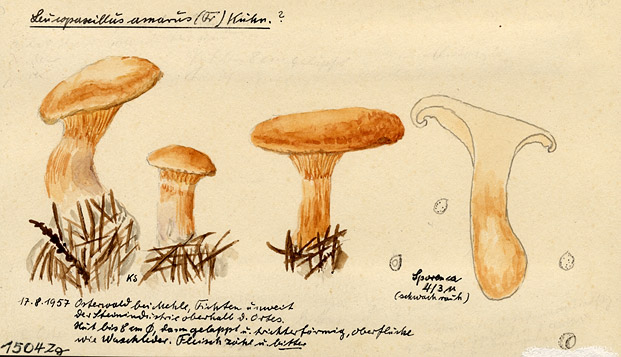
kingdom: Fungi
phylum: Basidiomycota
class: Agaricomycetes
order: Agaricales
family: Tricholomataceae
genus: Leucopaxillus
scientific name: Leucopaxillus gentianeus
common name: Bitter funnel
